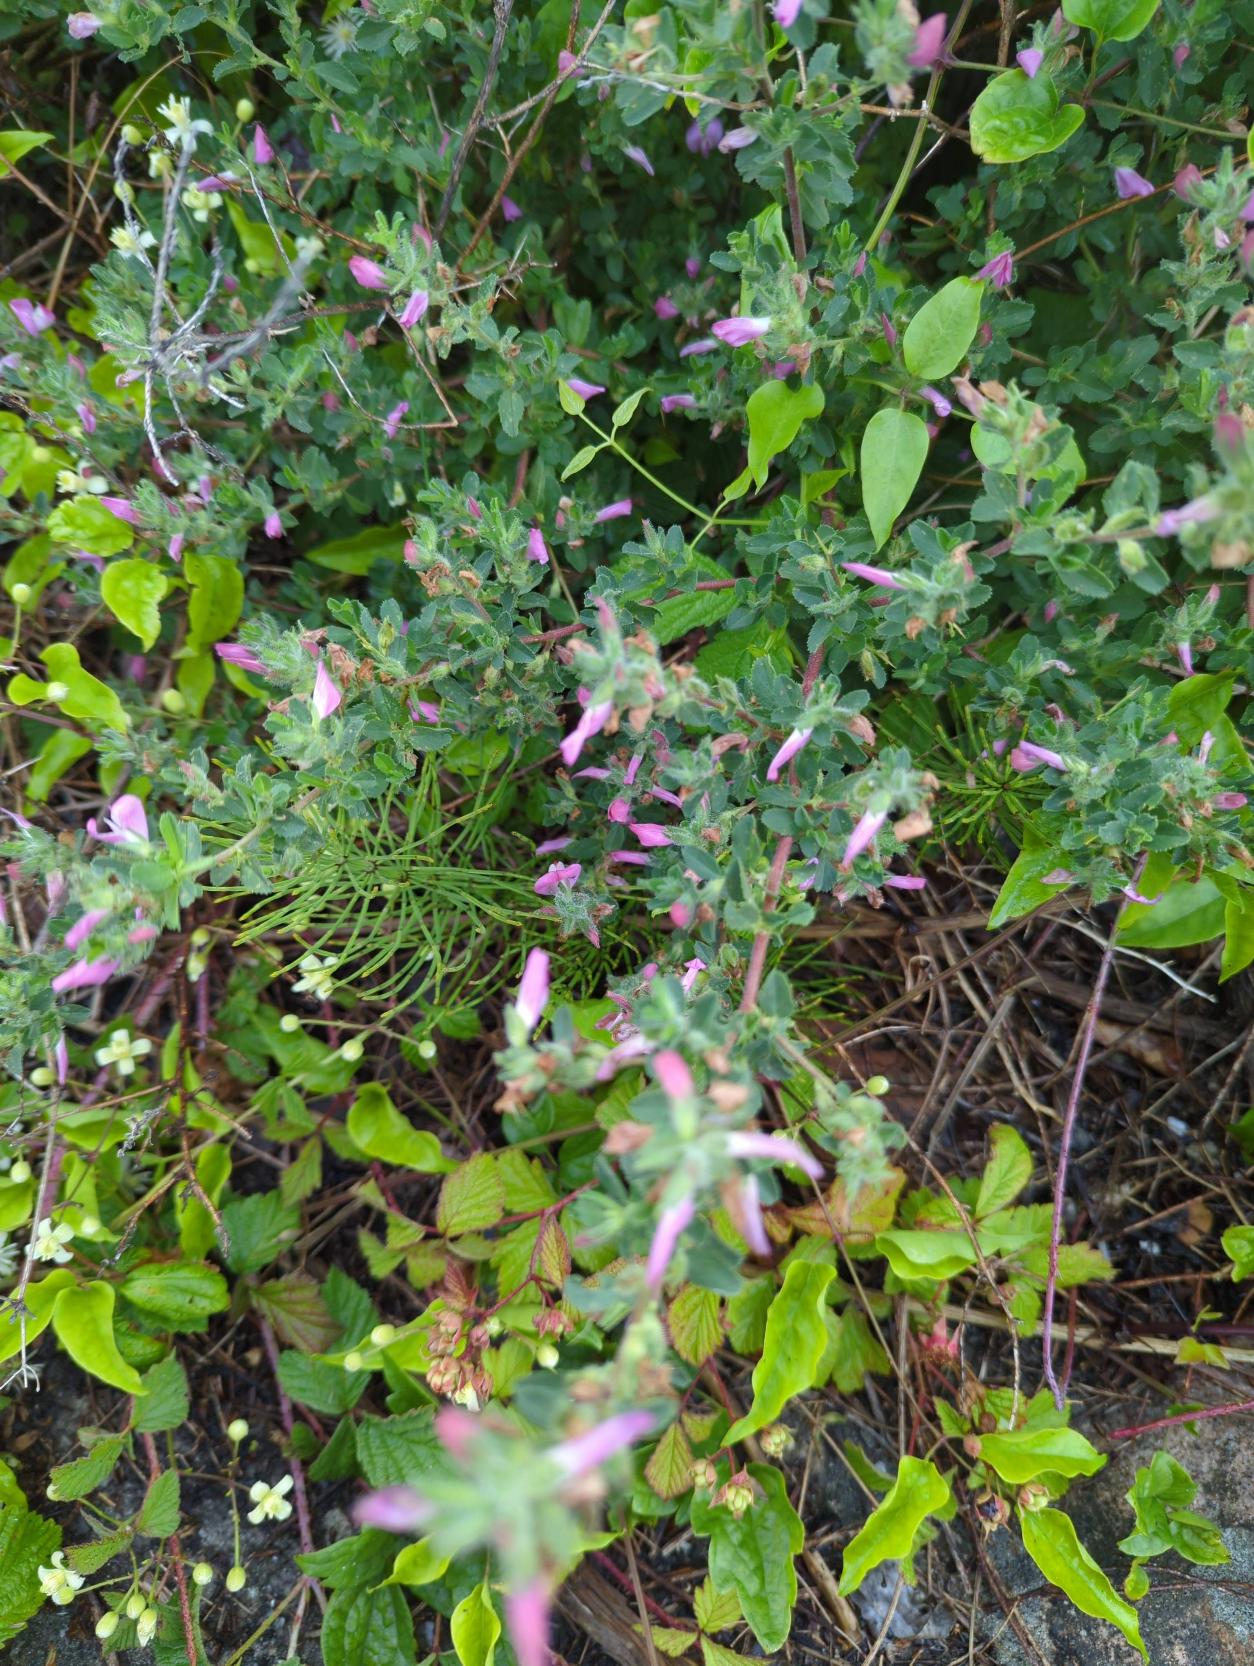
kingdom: Plantae
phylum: Tracheophyta
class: Magnoliopsida
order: Fabales
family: Fabaceae
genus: Ononis
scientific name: Ononis spinosa
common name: Mark-krageklo
